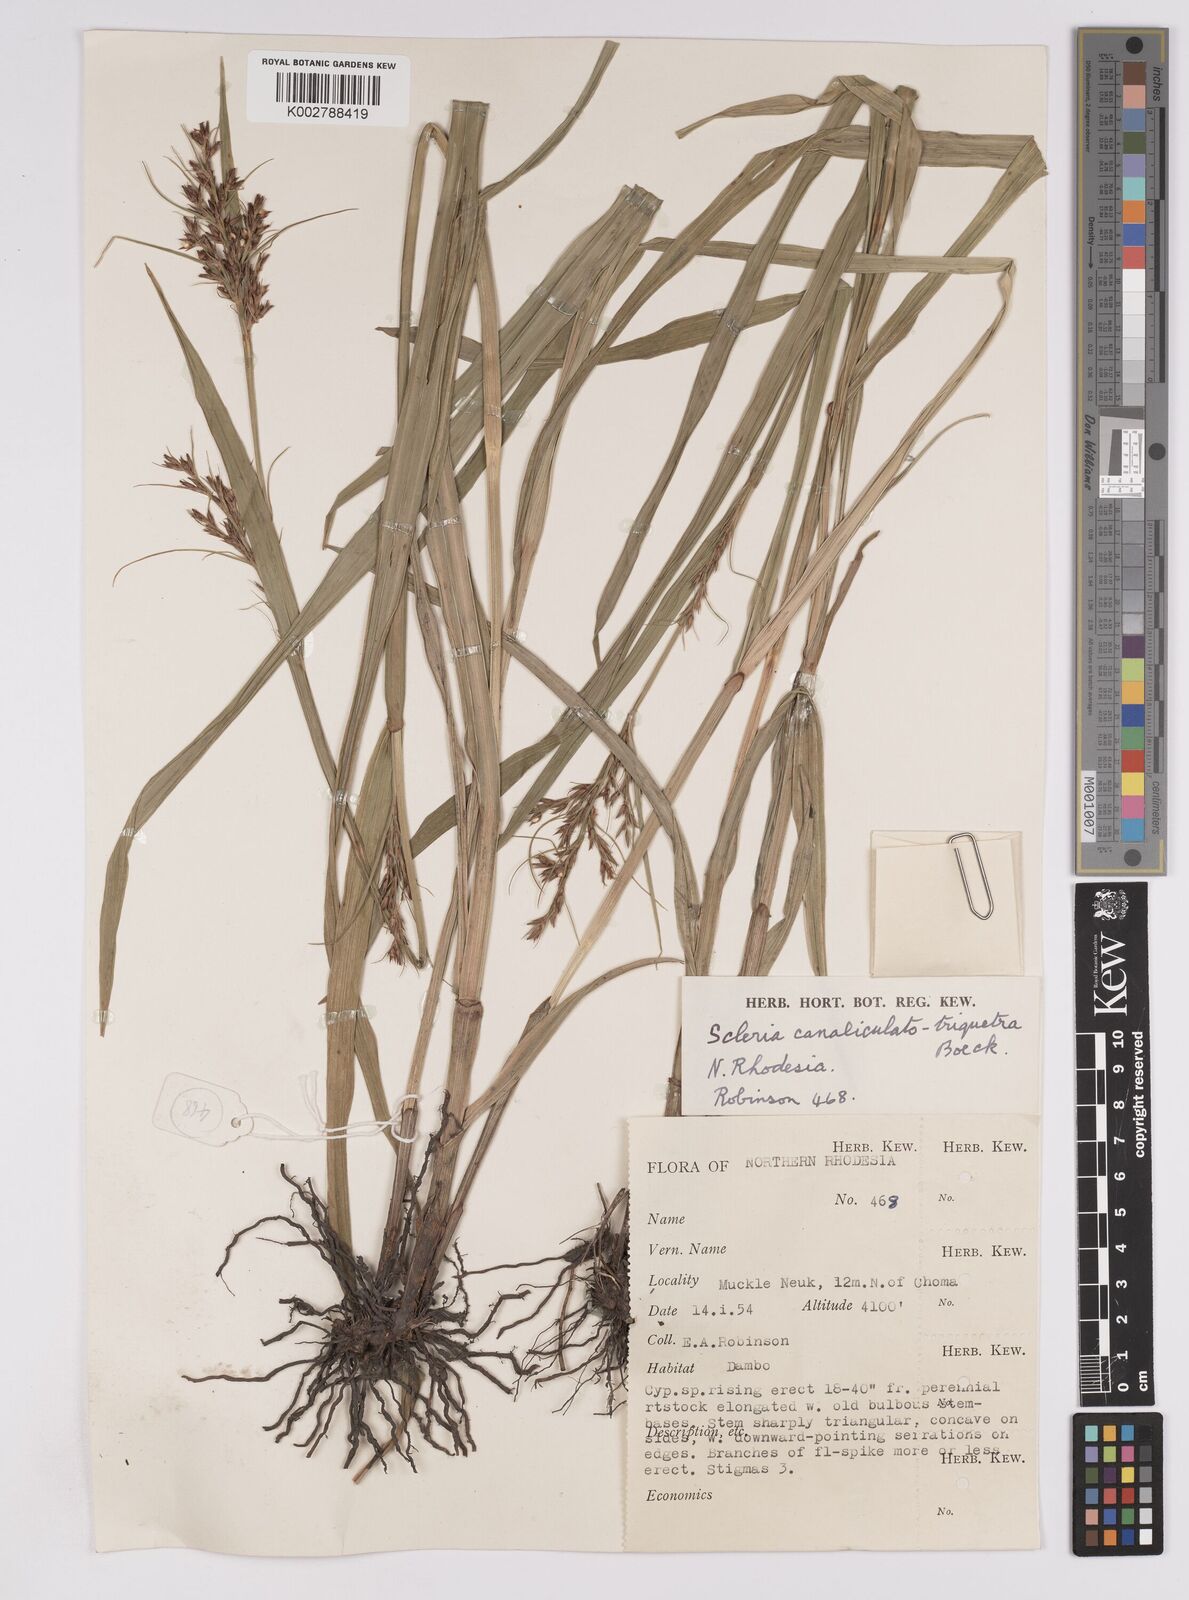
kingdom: Plantae
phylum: Tracheophyta
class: Liliopsida
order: Poales
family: Cyperaceae
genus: Scleria
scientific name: Scleria lagoensis
